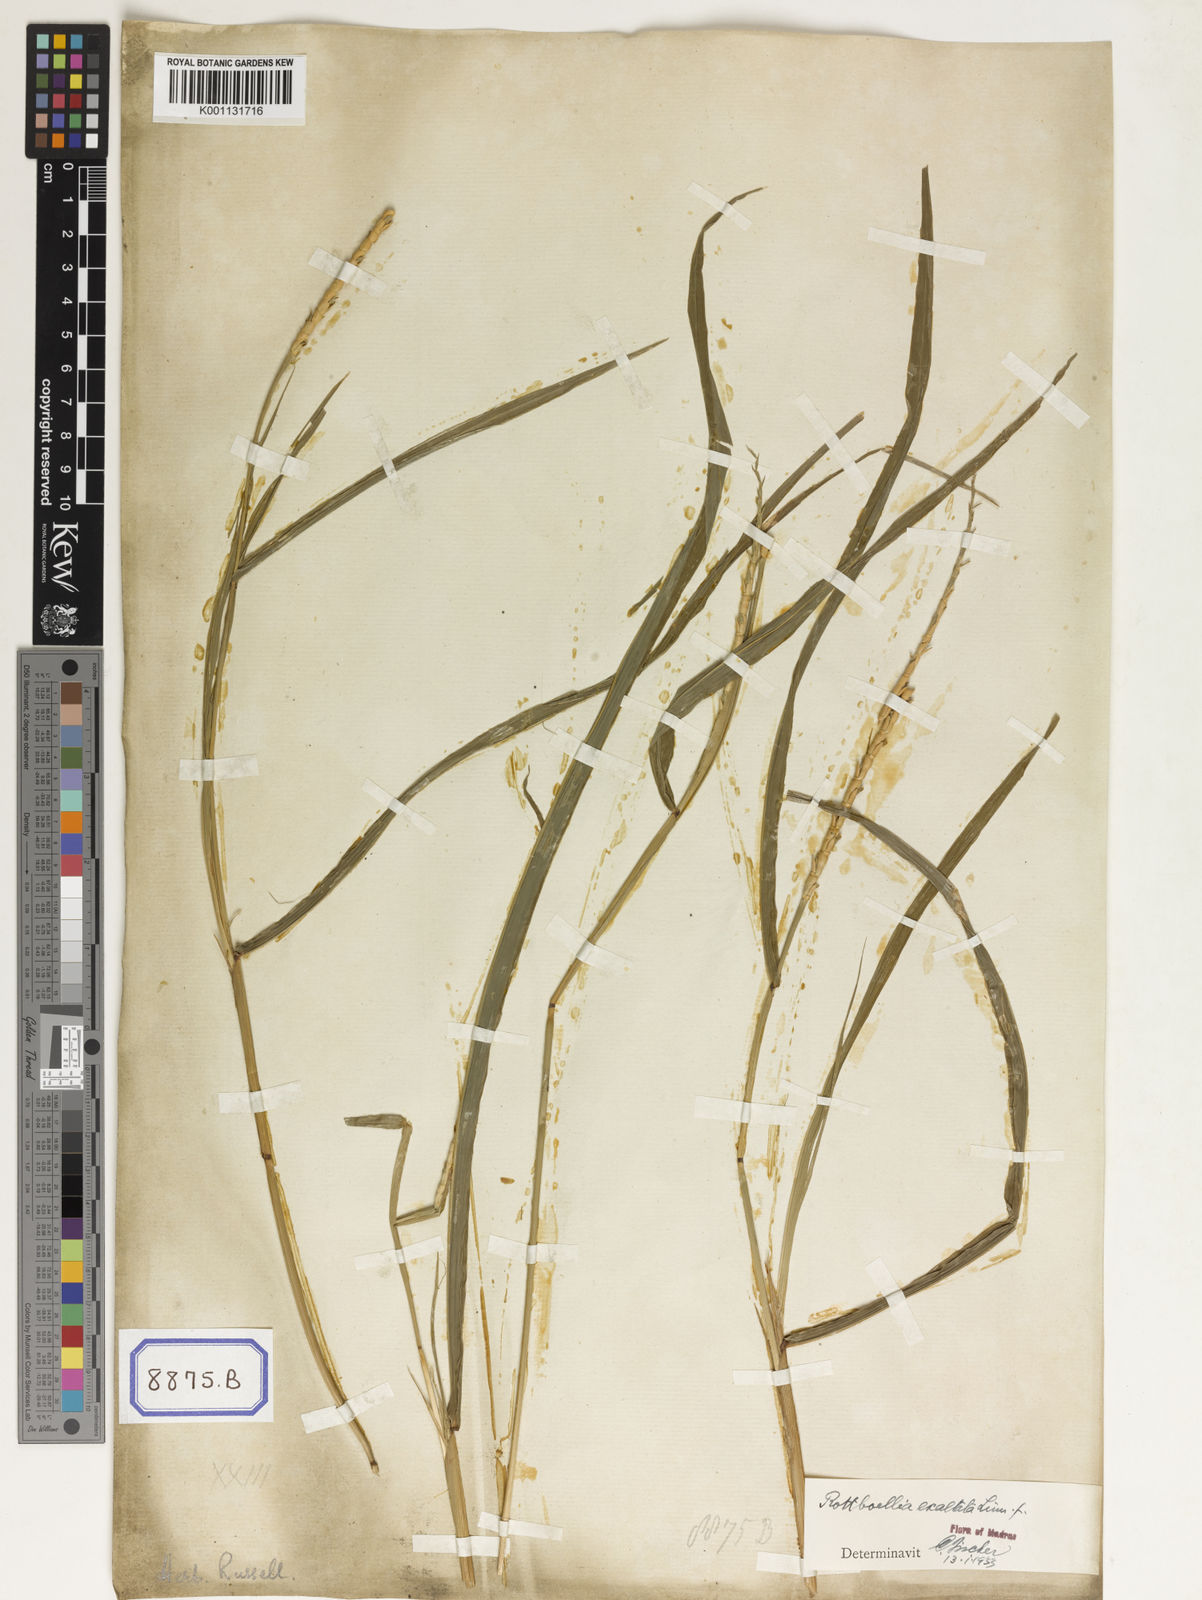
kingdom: Plantae
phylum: Tracheophyta
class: Liliopsida
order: Poales
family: Poaceae
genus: Ophiuros
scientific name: Ophiuros exaltatus
